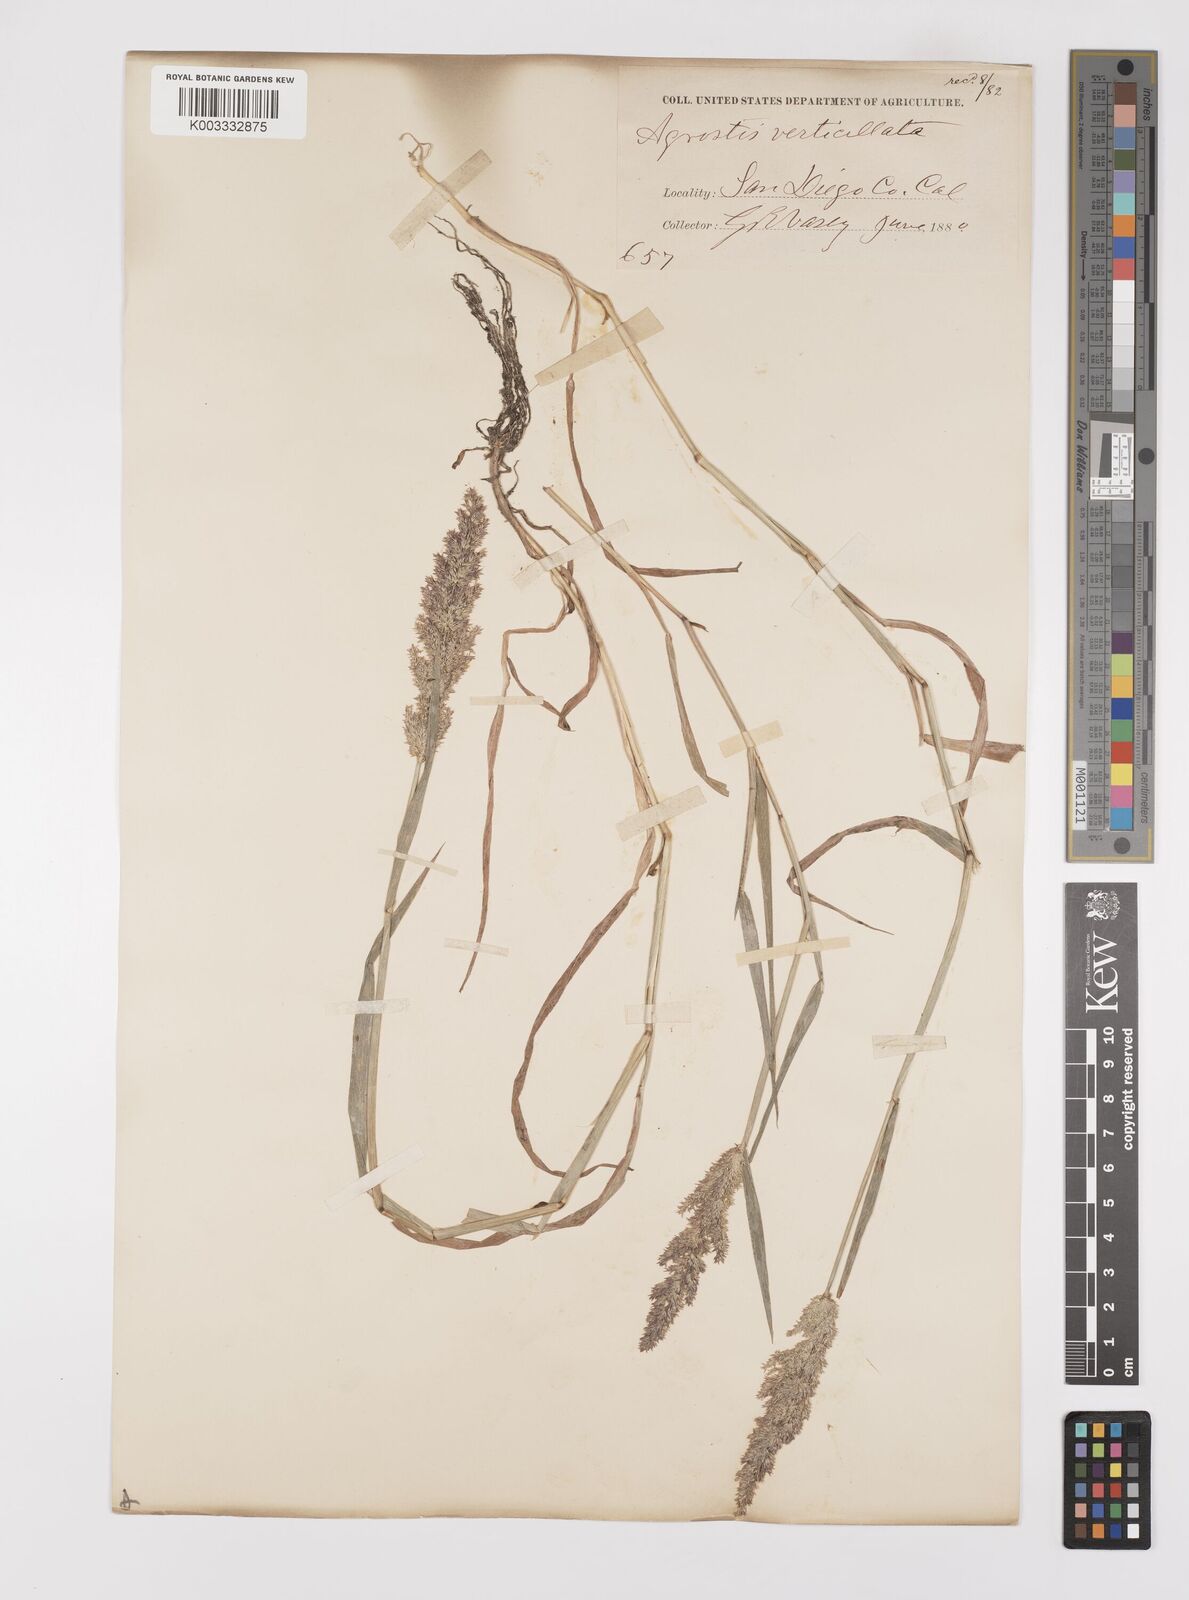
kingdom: Plantae
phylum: Tracheophyta
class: Liliopsida
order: Poales
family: Poaceae
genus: Polypogon
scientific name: Polypogon viridis
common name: Water bent
